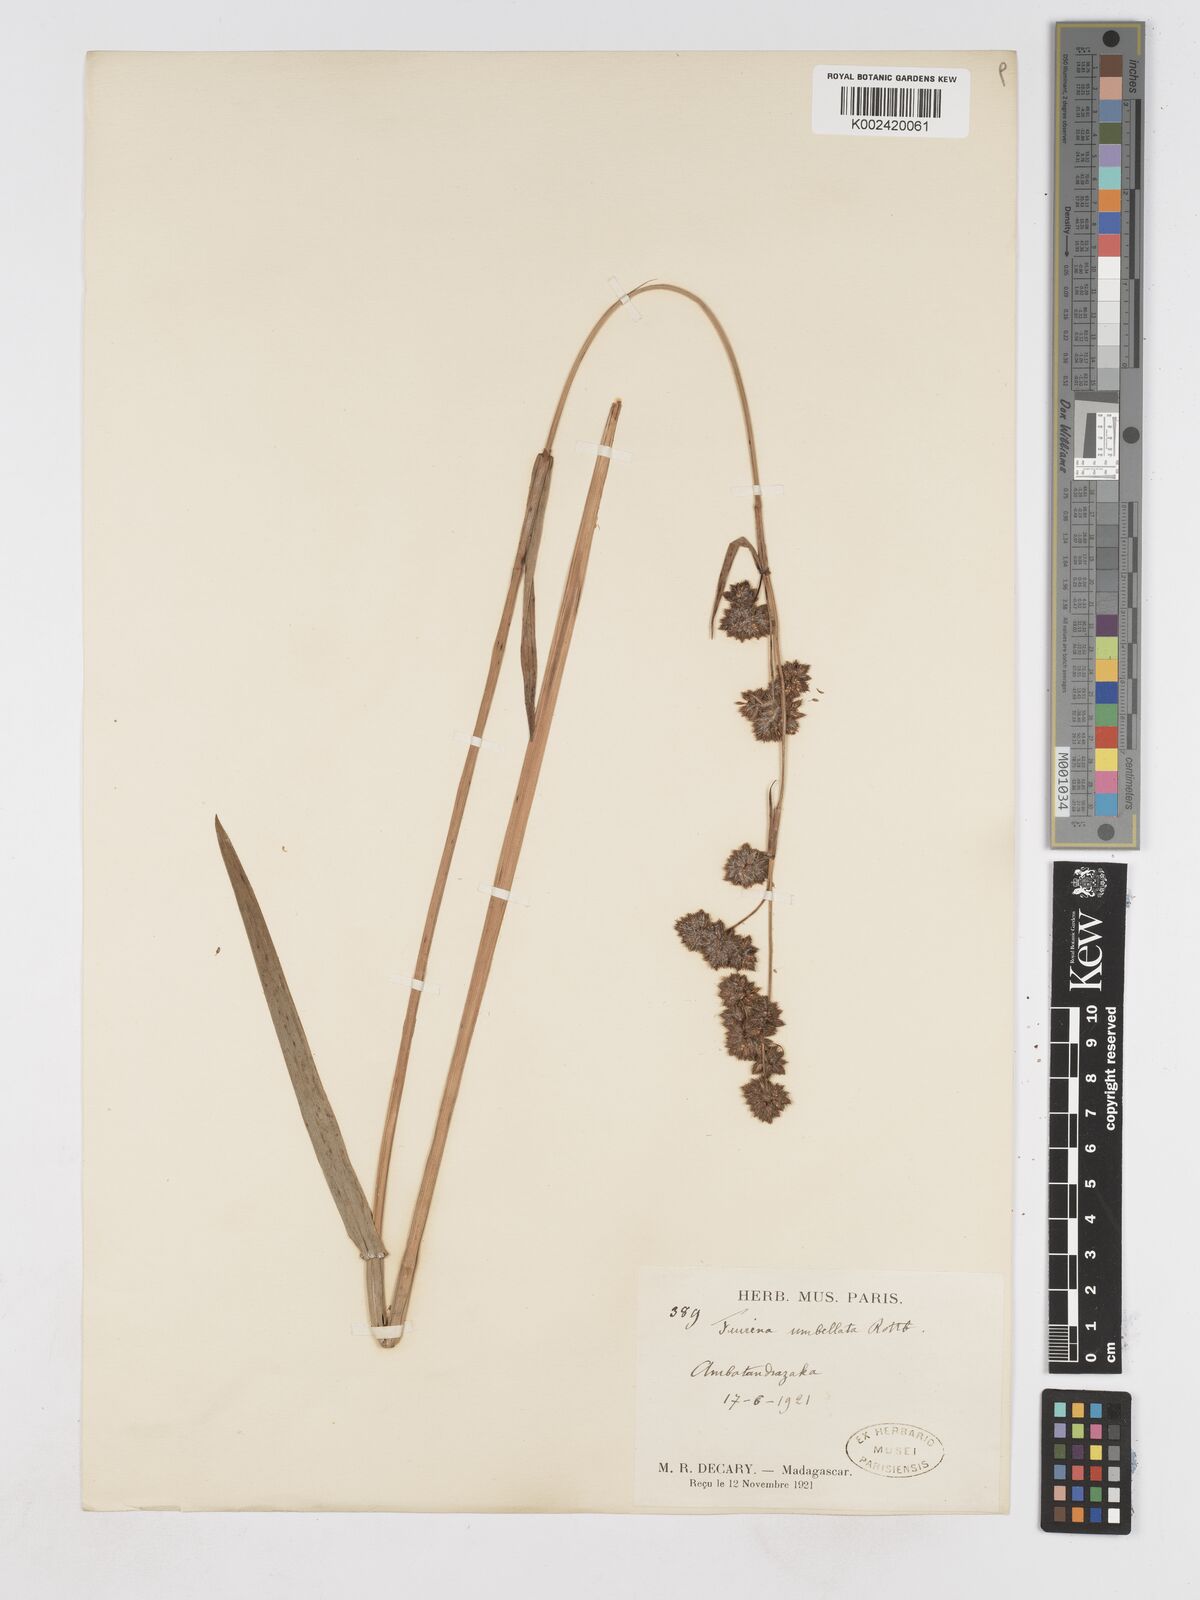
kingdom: Plantae
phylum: Tracheophyta
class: Liliopsida
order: Poales
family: Cyperaceae
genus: Fuirena
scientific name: Fuirena umbellata
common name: Yefen
